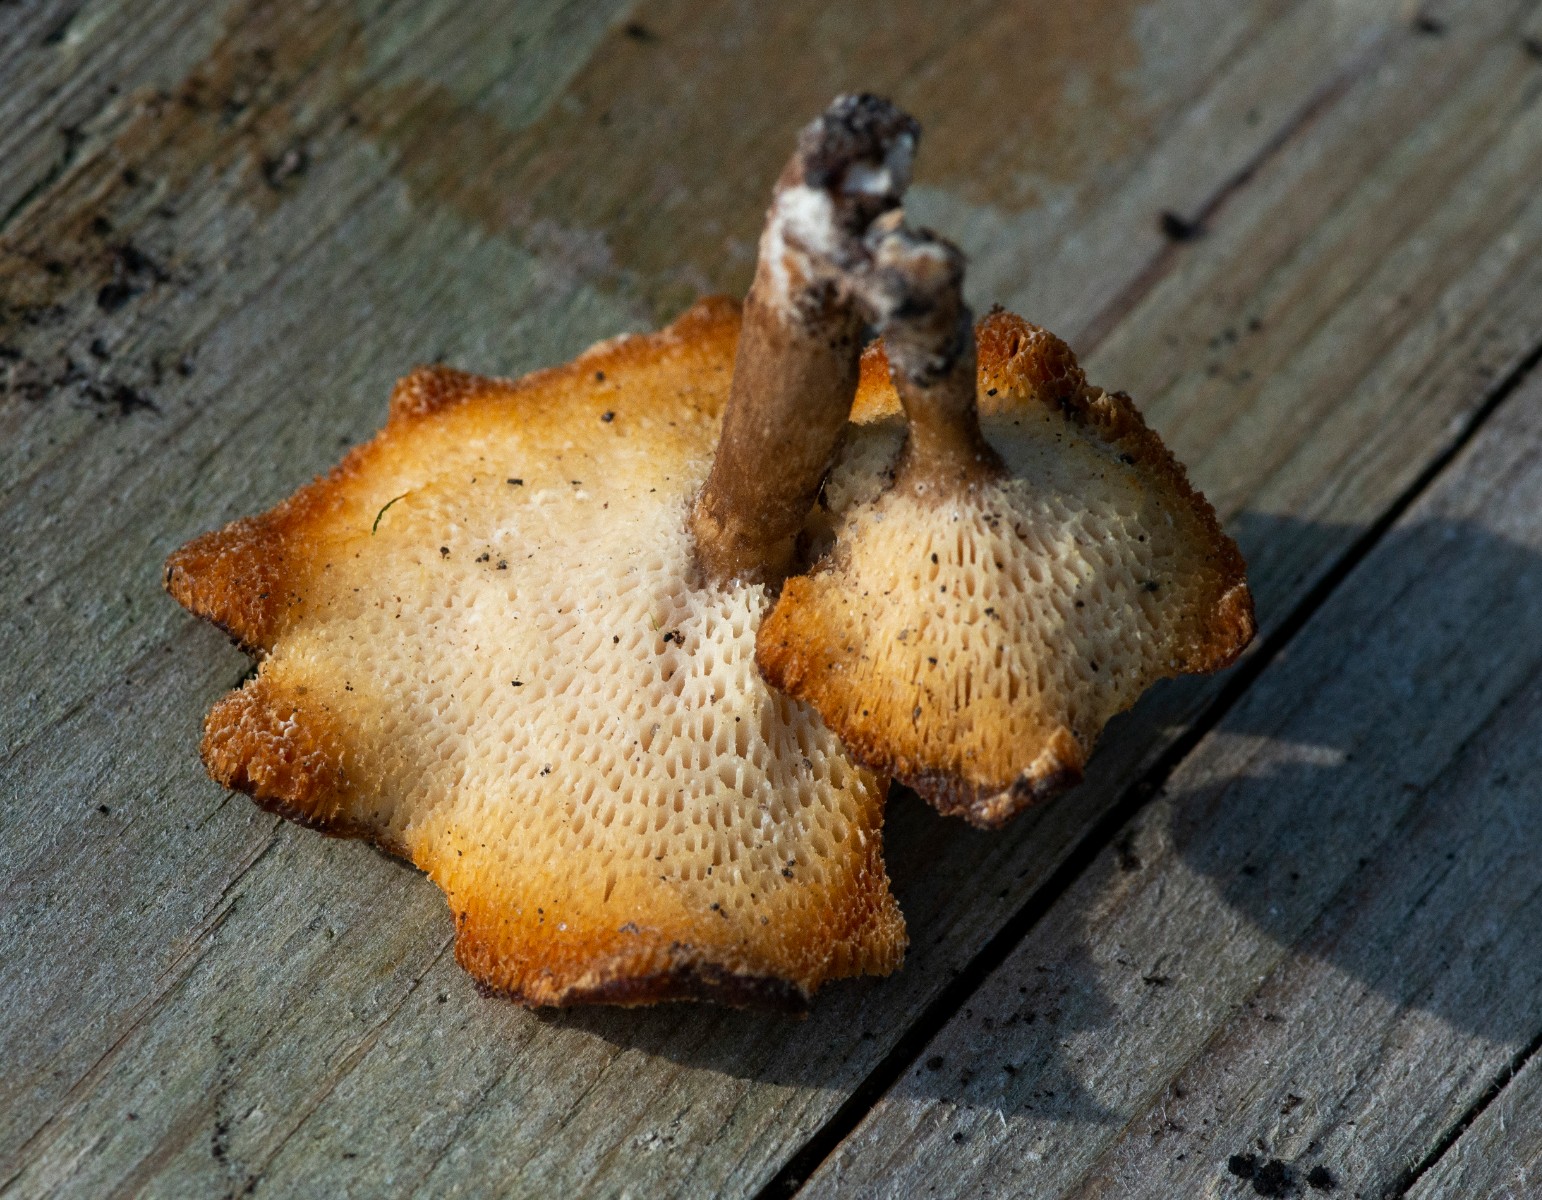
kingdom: Fungi
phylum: Basidiomycota
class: Agaricomycetes
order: Polyporales
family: Polyporaceae
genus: Lentinus
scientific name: Lentinus brumalis
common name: vinter-stilkporesvamp
